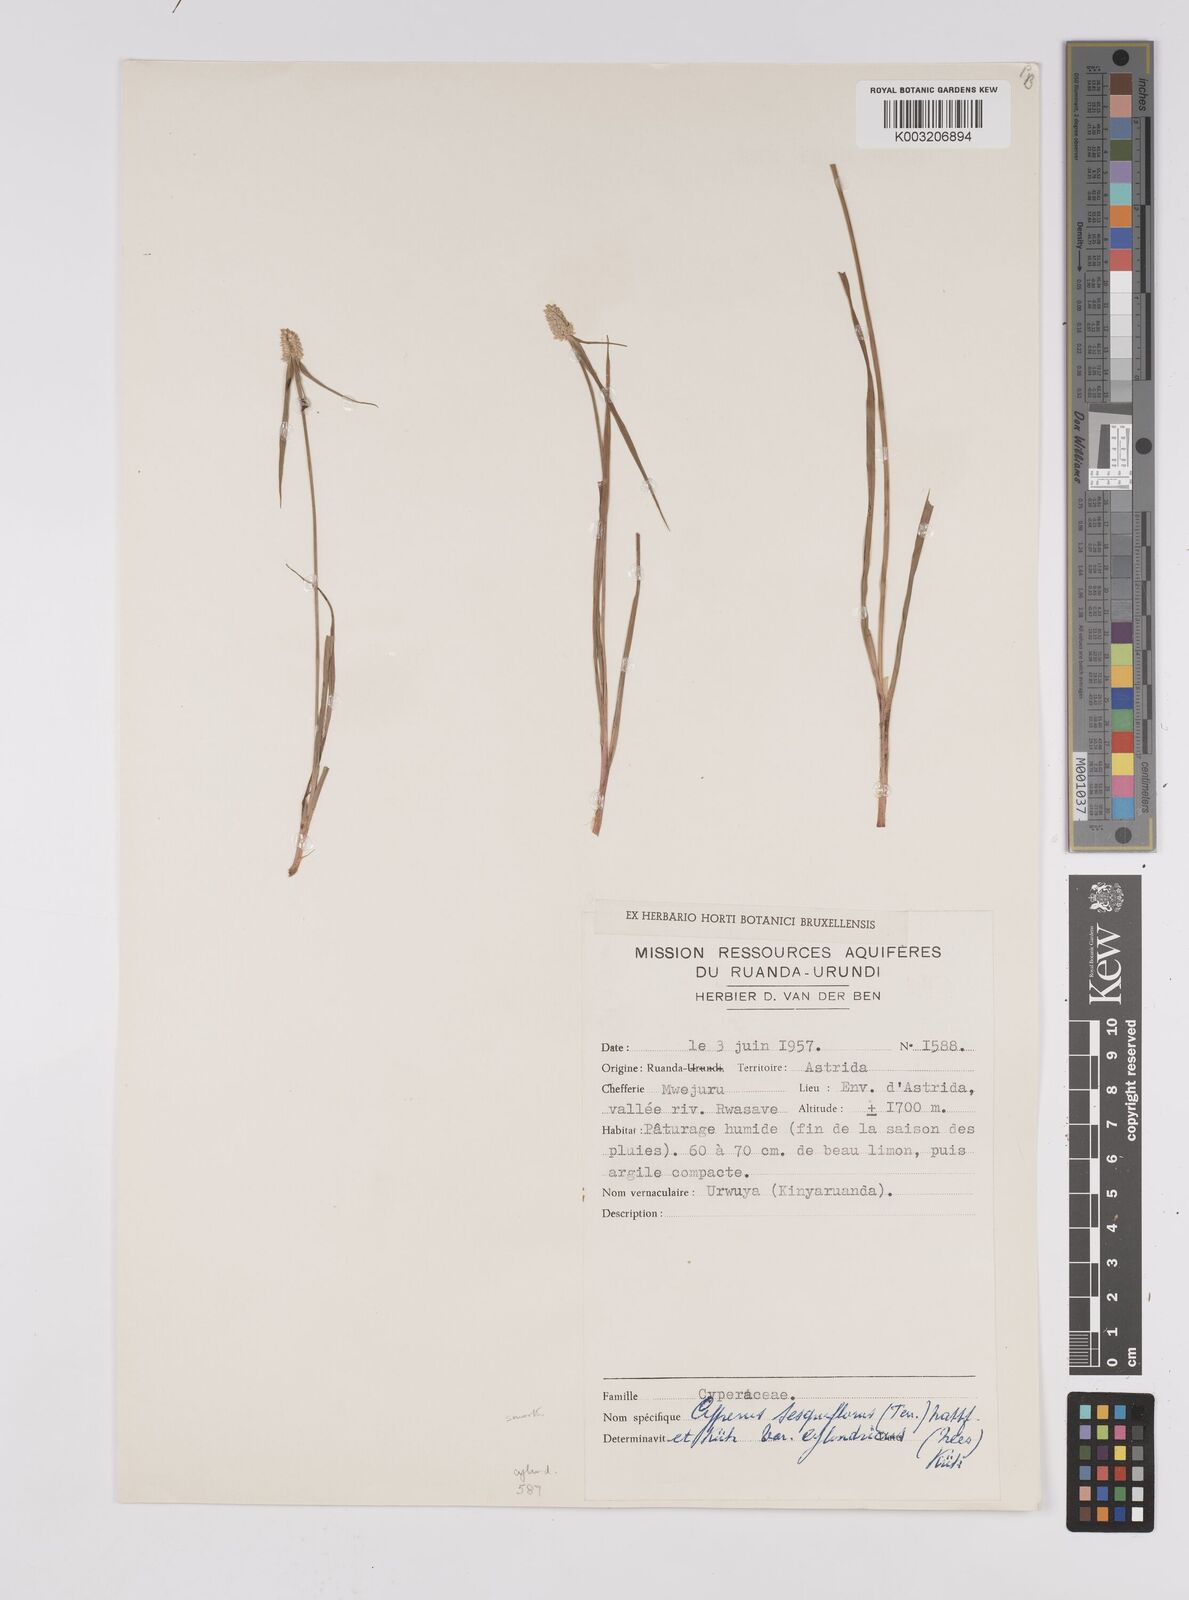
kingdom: Plantae
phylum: Tracheophyta
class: Liliopsida
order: Poales
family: Cyperaceae
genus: Cyperus
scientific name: Cyperus odoratus
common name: Fragrant flatsedge
